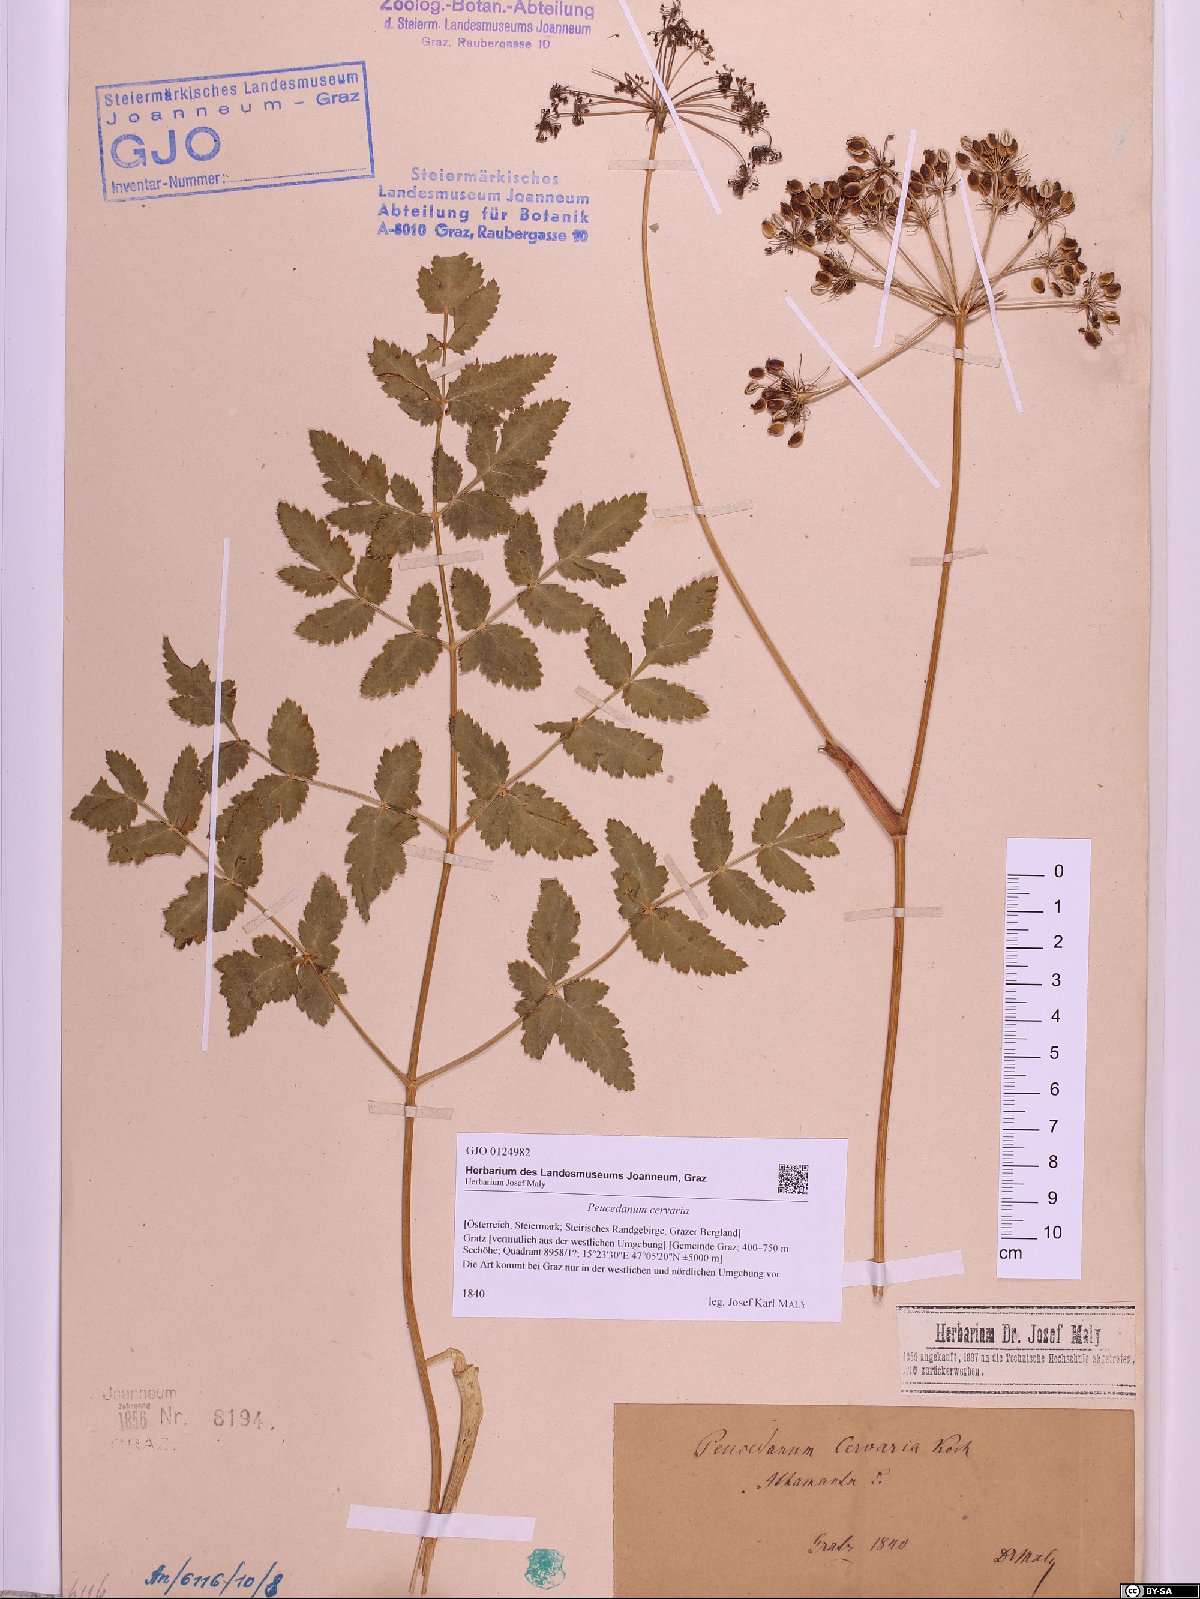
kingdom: Plantae
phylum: Tracheophyta
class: Magnoliopsida
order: Apiales
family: Apiaceae
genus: Cervaria
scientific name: Cervaria rivini
